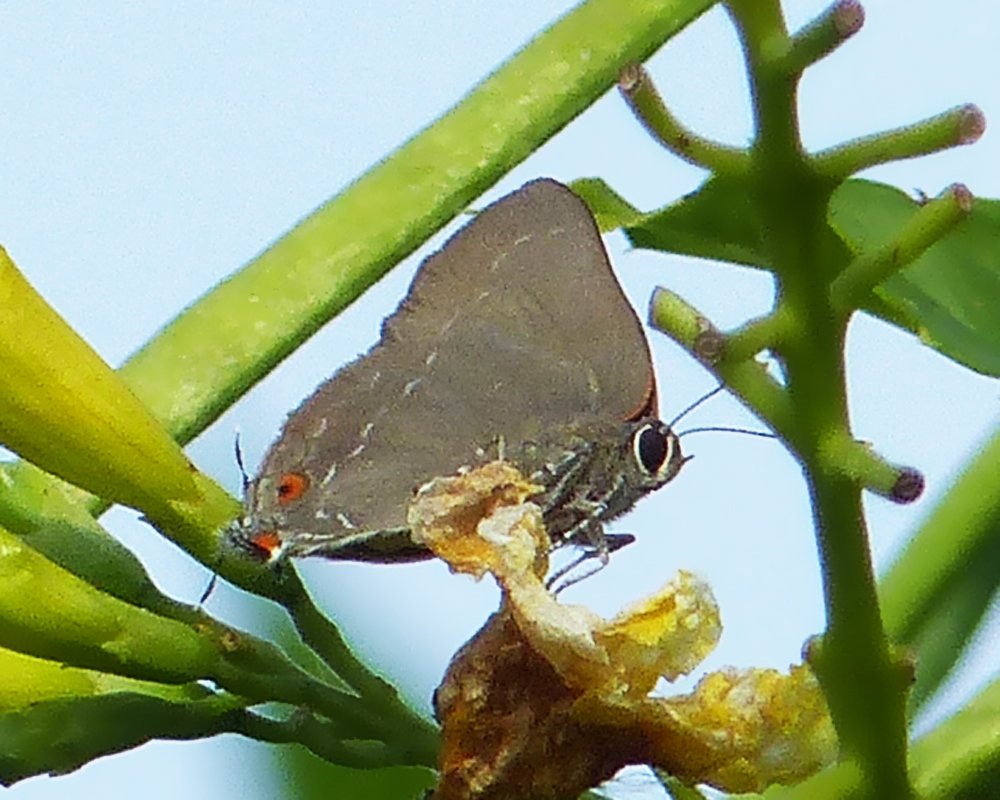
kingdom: Animalia
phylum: Arthropoda
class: Insecta
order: Lepidoptera
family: Lycaenidae
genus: Michaelus
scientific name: Michaelus ira
